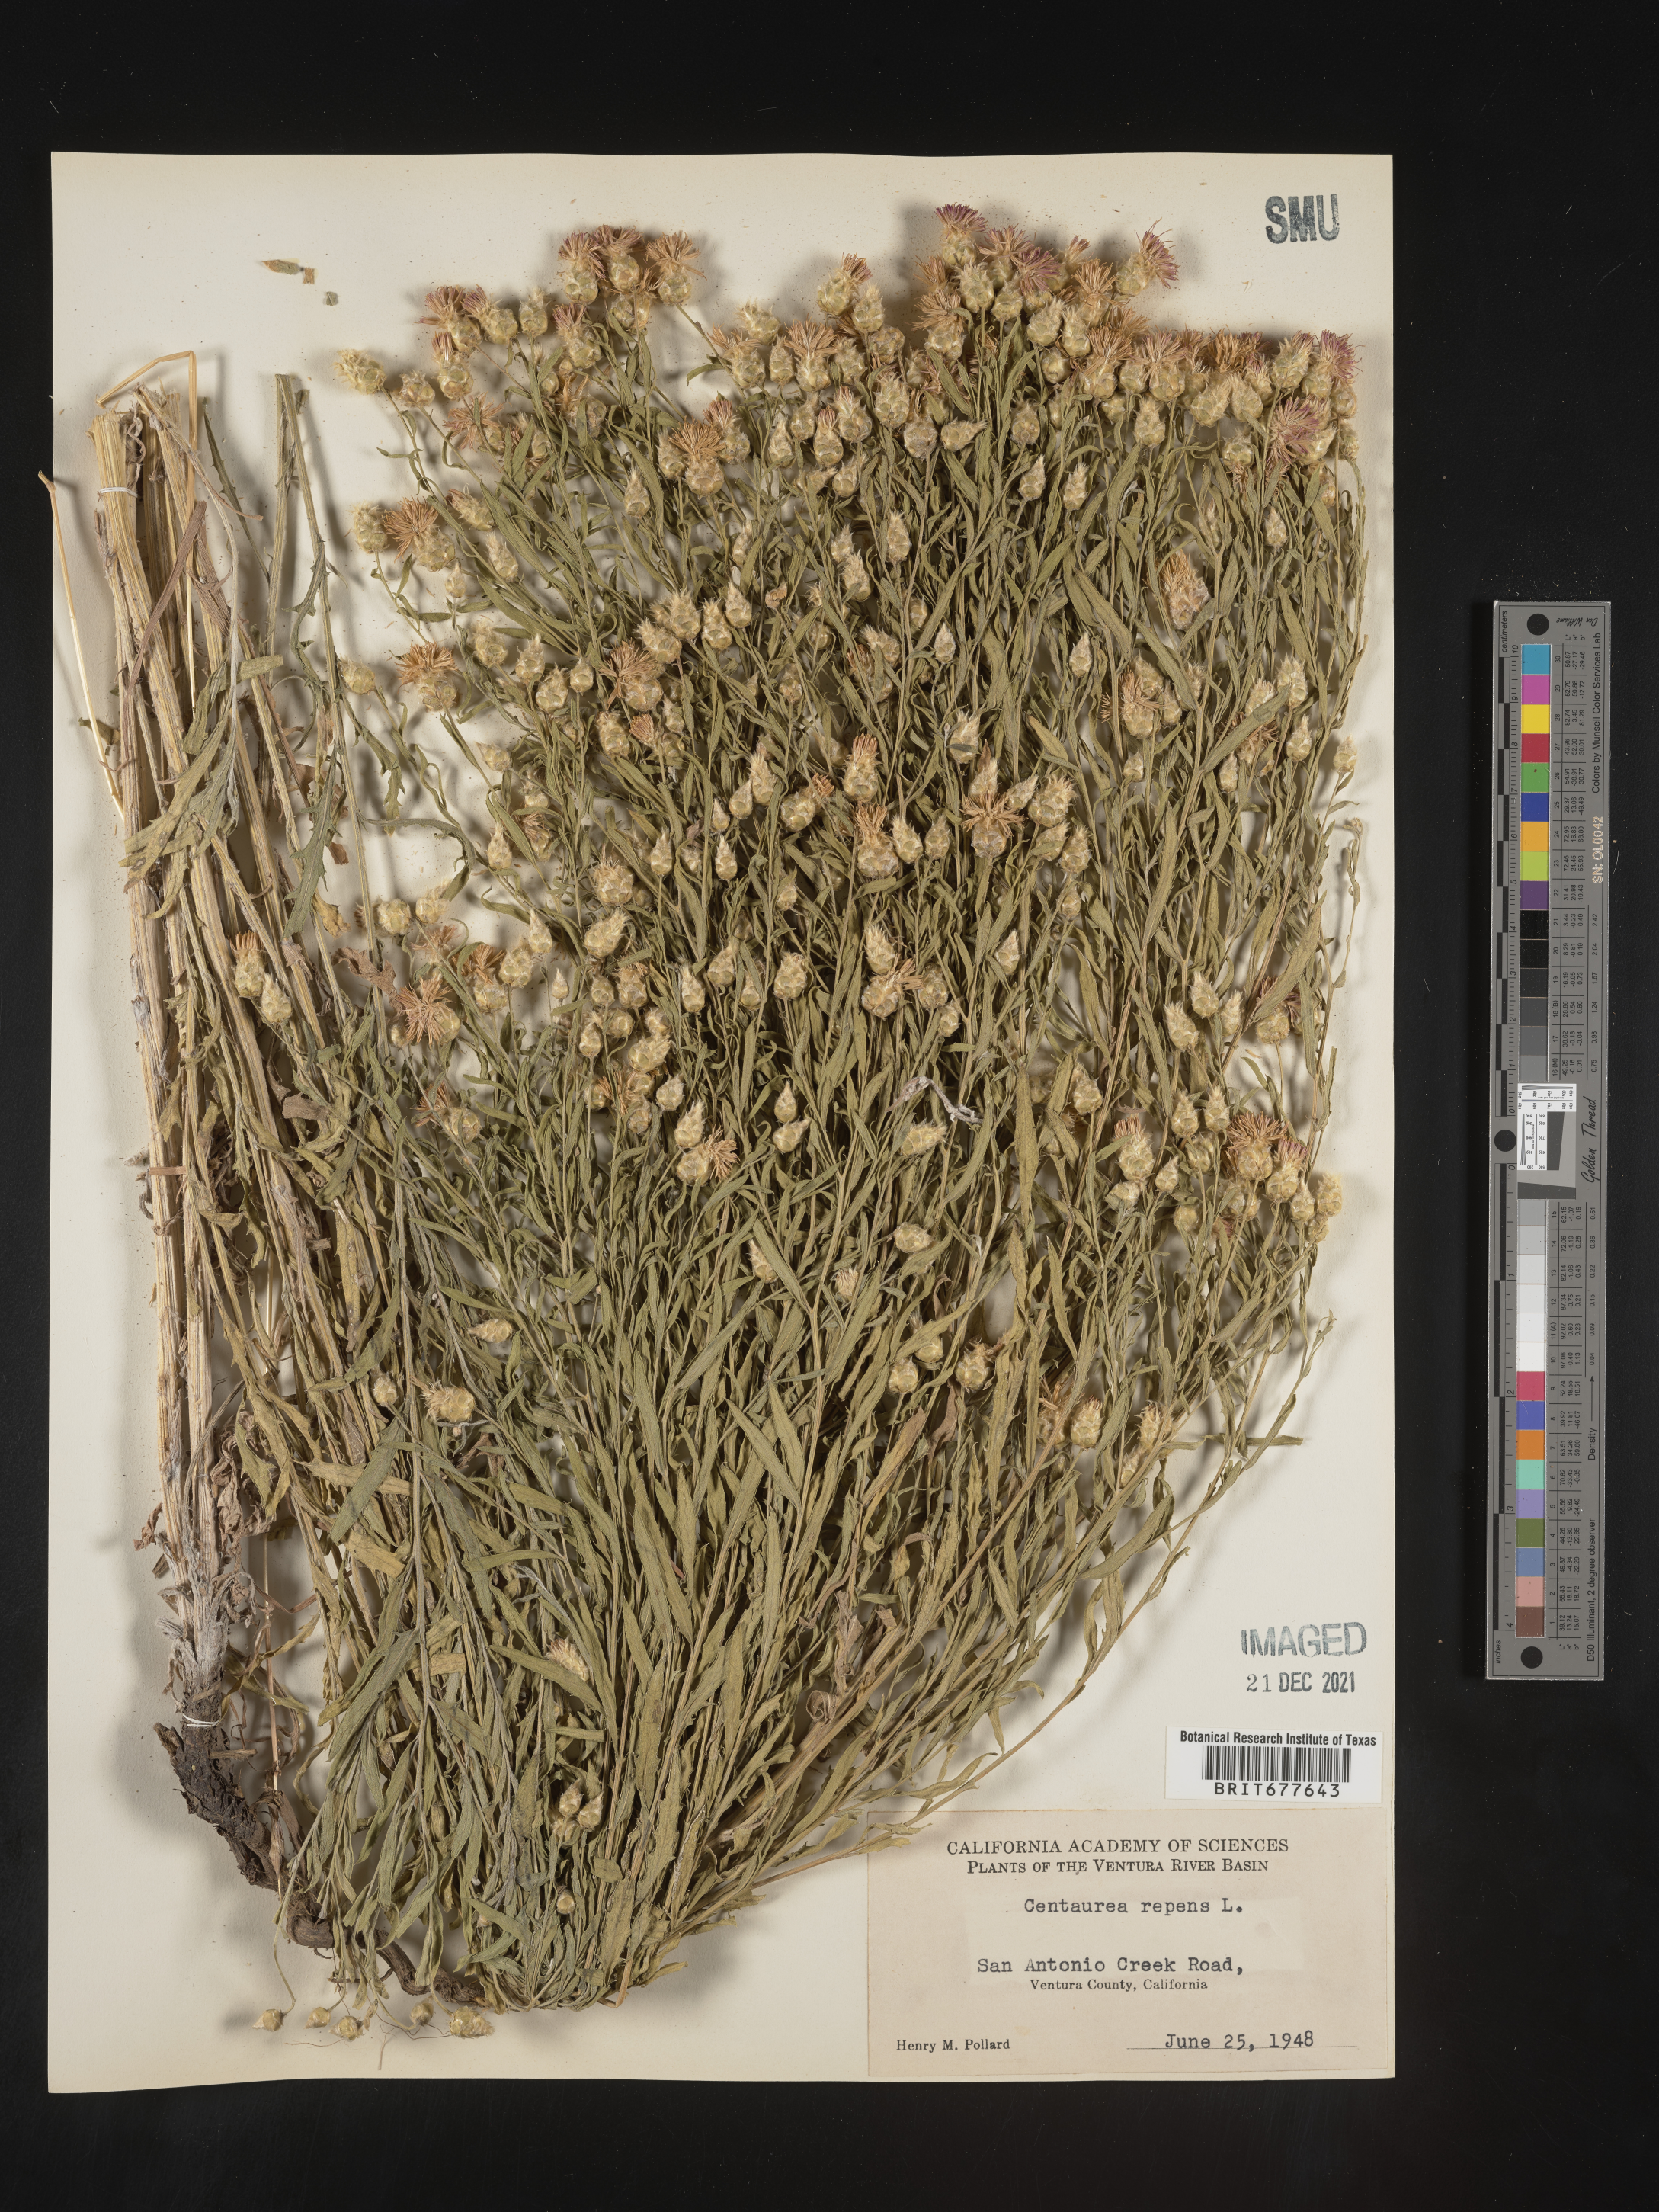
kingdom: Plantae
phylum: Tracheophyta
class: Magnoliopsida
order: Asterales
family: Asteraceae
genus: Leuzea
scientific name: Leuzea repens
